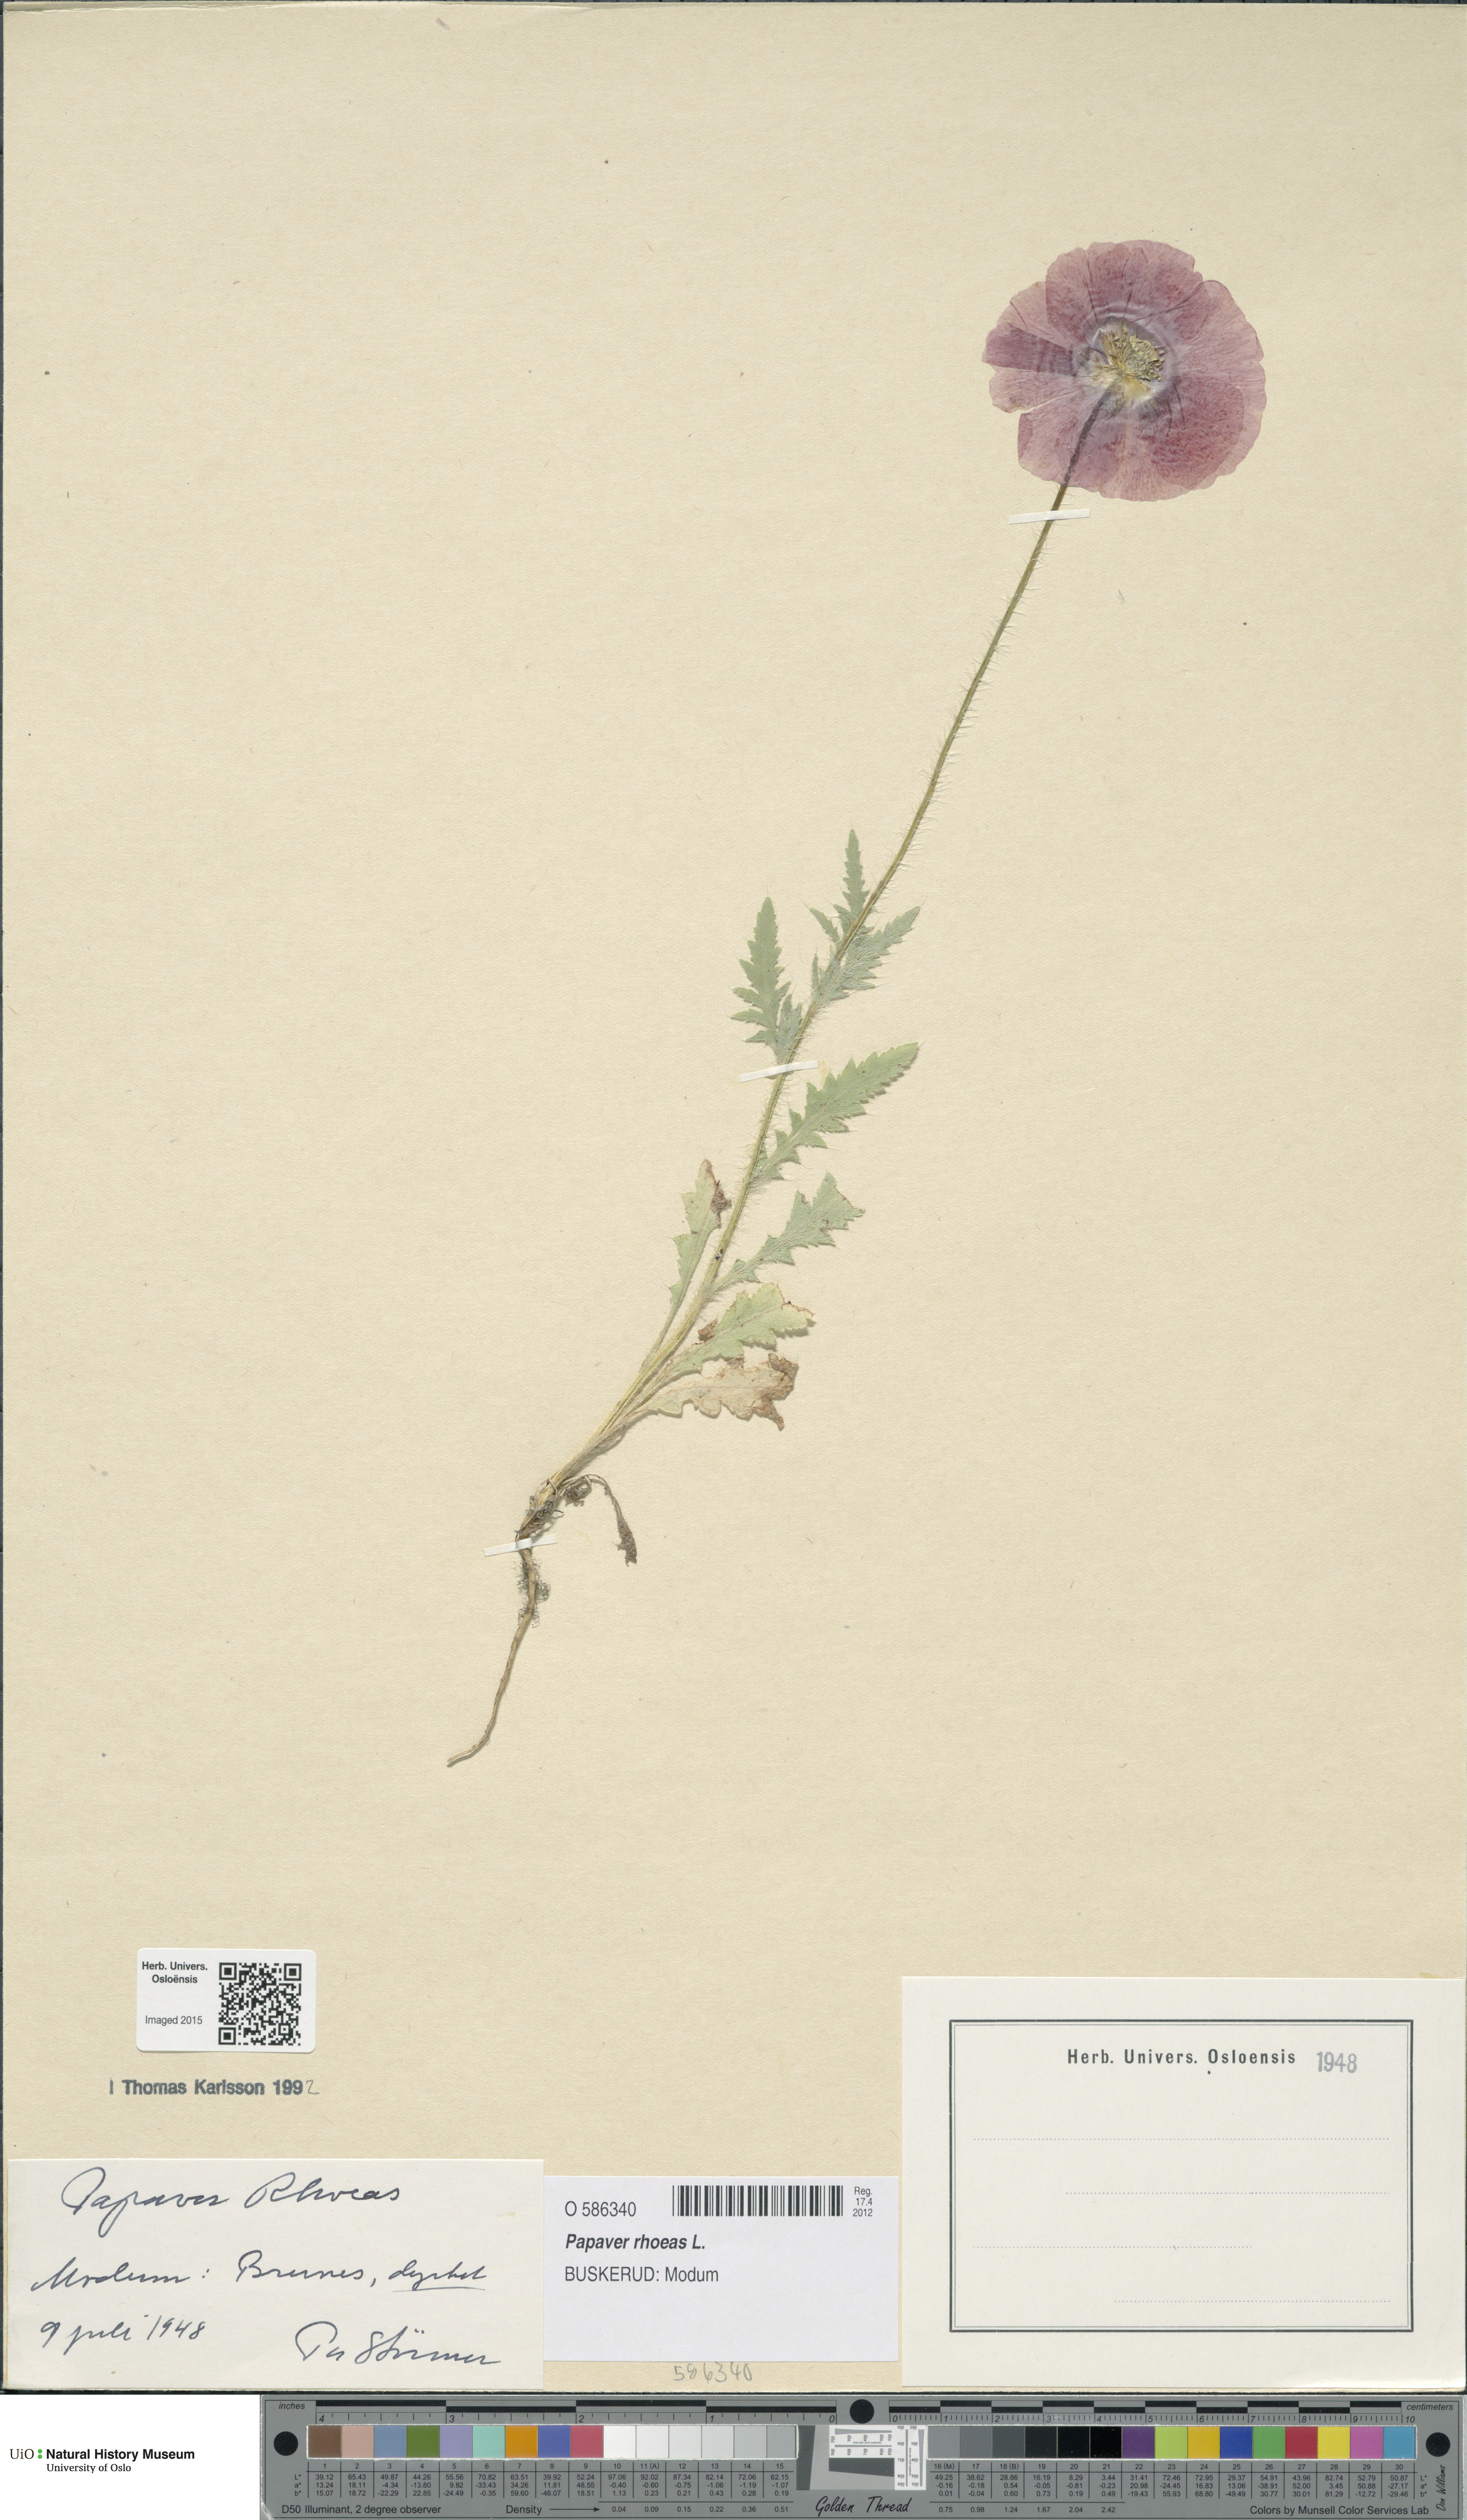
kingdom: Plantae
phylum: Tracheophyta
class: Magnoliopsida
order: Ranunculales
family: Papaveraceae
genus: Papaver
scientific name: Papaver rhoeas
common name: Corn poppy
